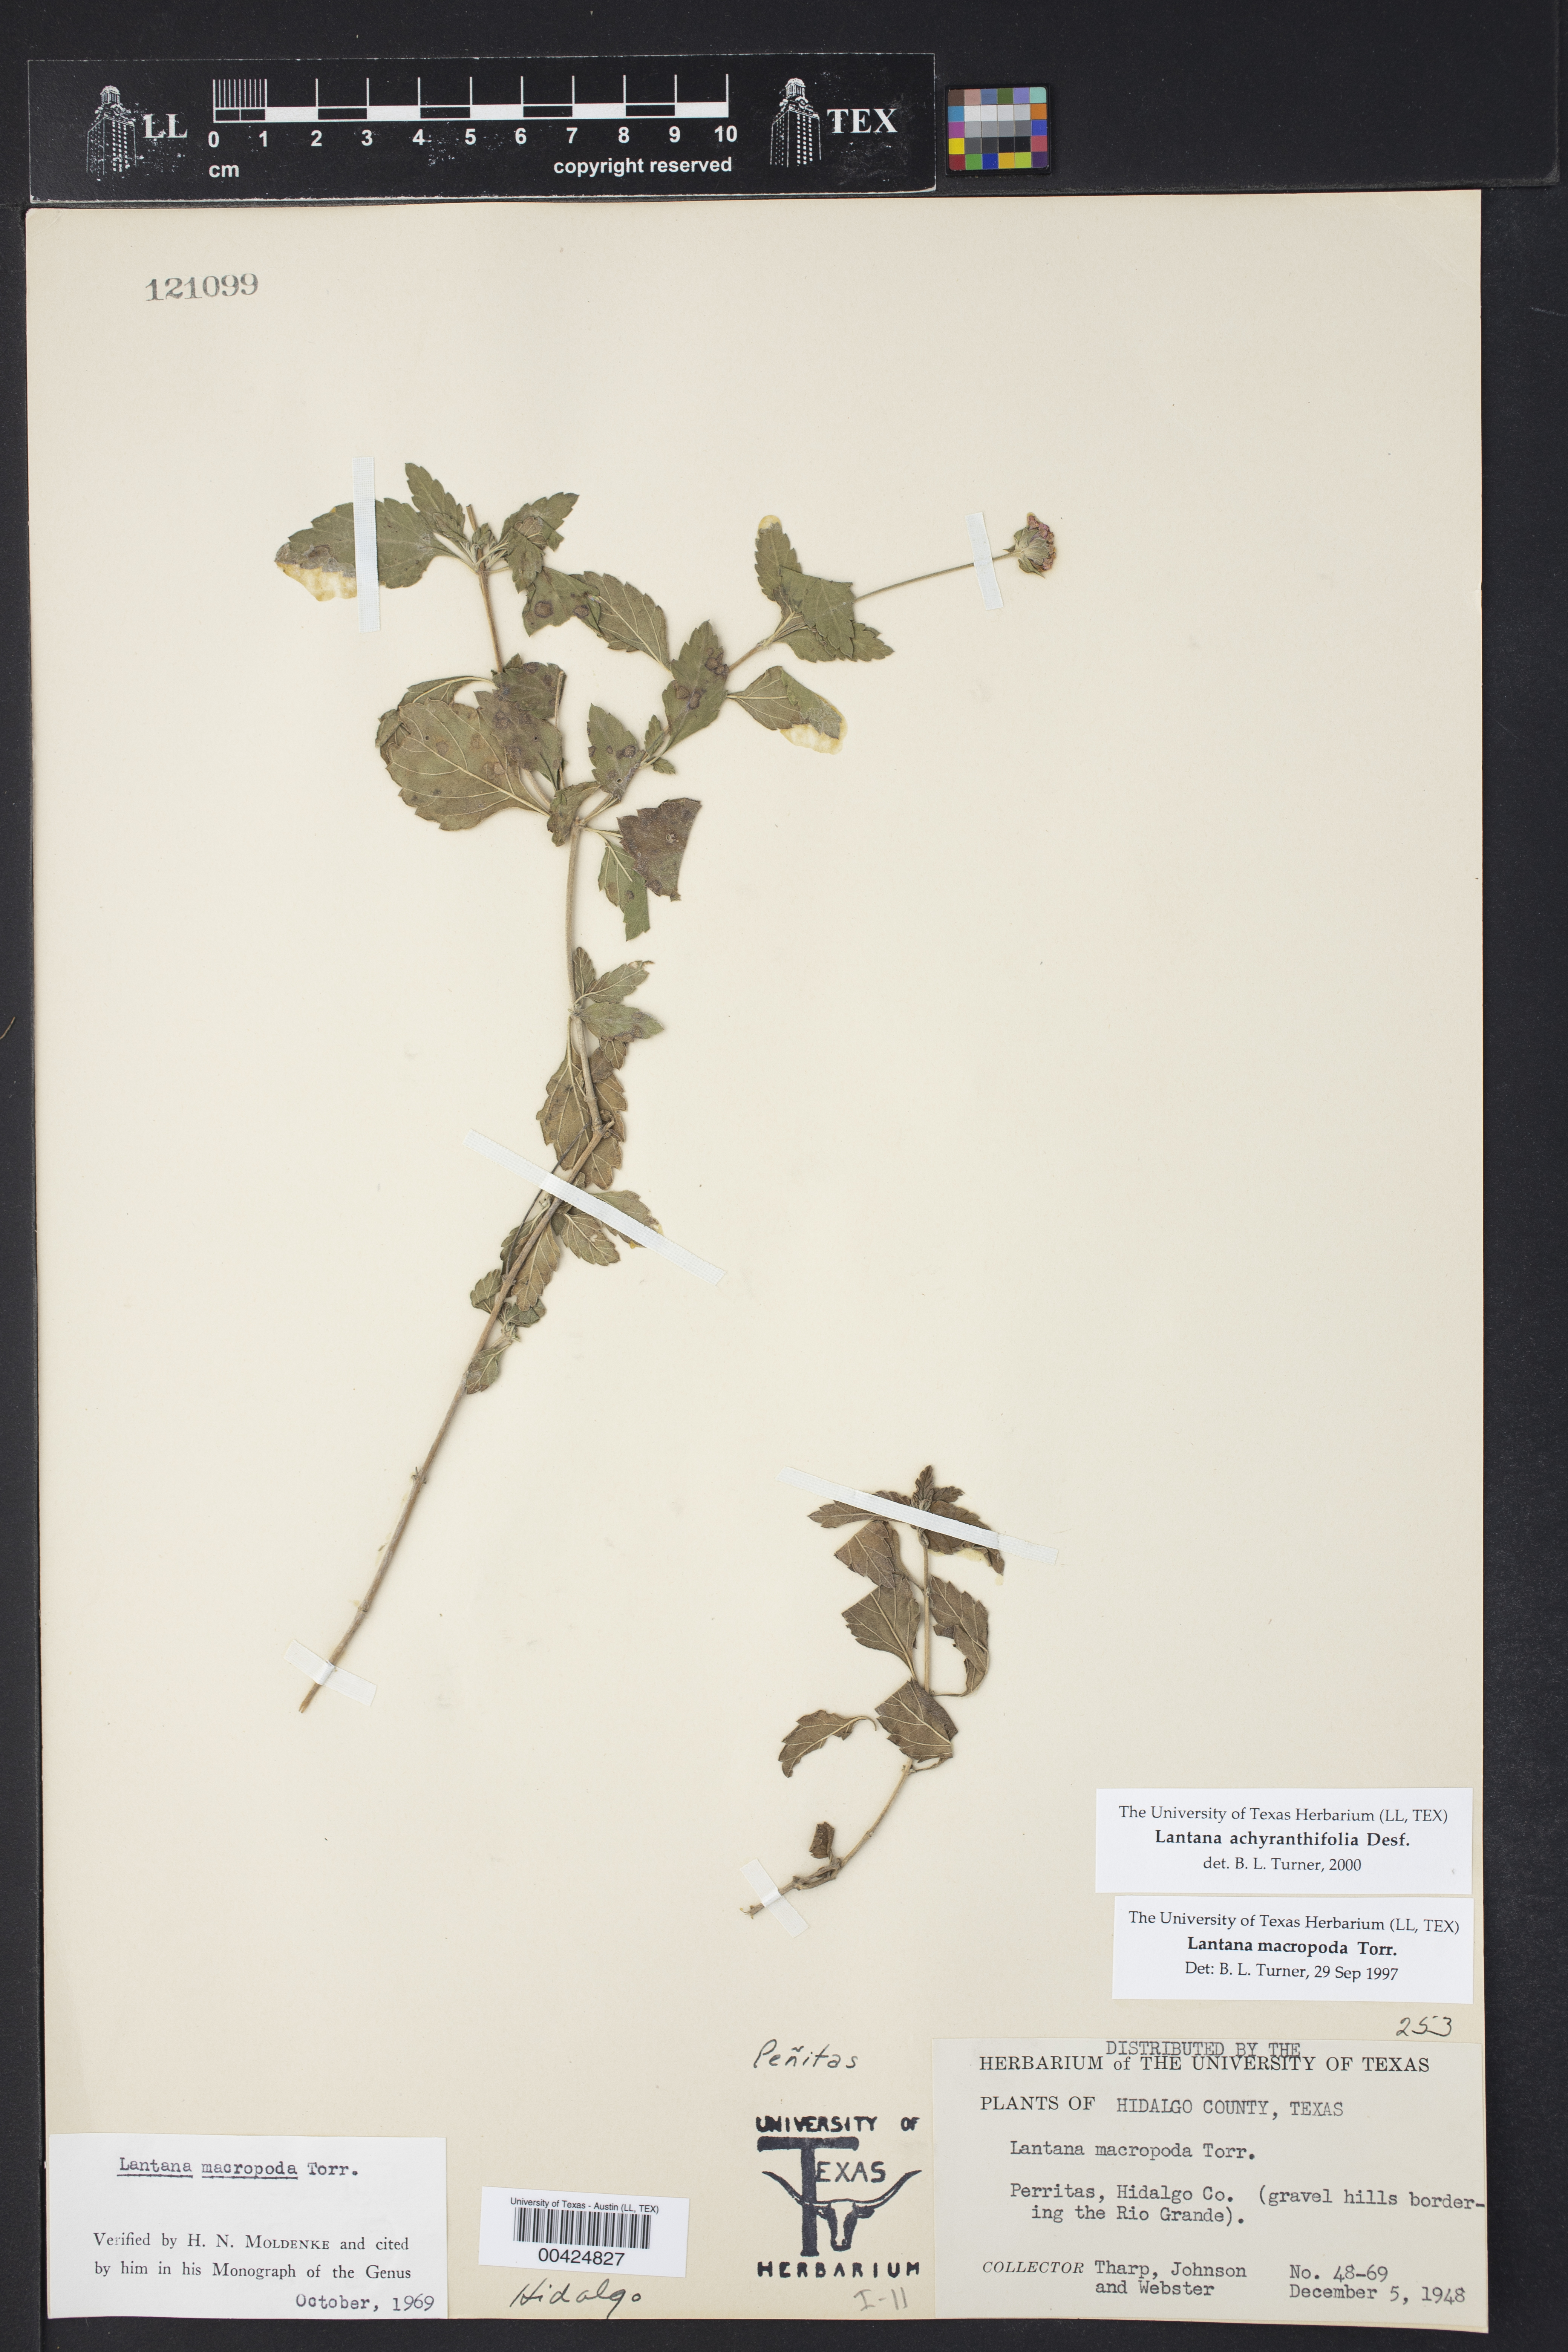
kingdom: Plantae
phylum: Tracheophyta
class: Magnoliopsida
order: Lamiales
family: Verbenaceae
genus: Lantana
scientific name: Lantana achyranthifolia
